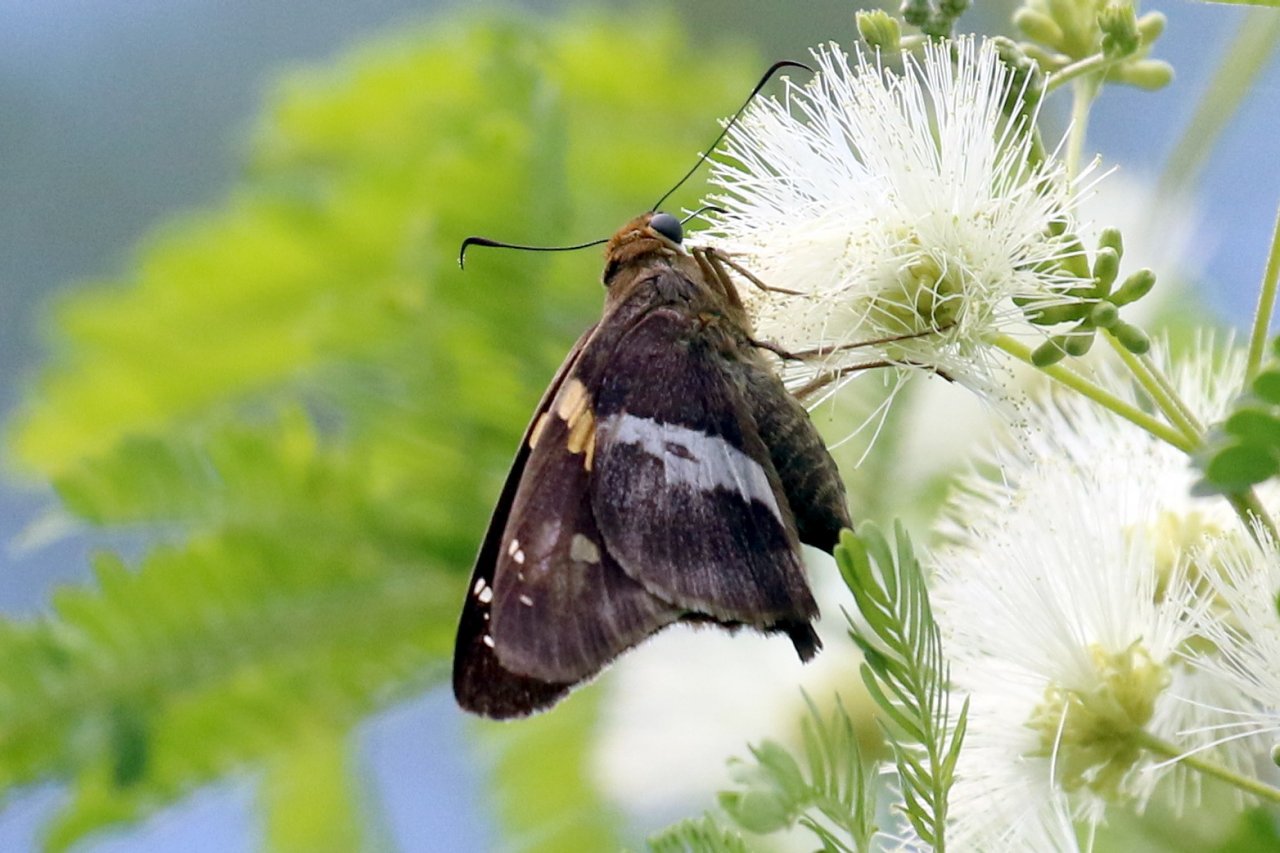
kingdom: Animalia
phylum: Arthropoda
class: Insecta
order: Lepidoptera
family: Hesperiidae
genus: Aguna
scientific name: Aguna asander
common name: Gold-spotted Aguna
